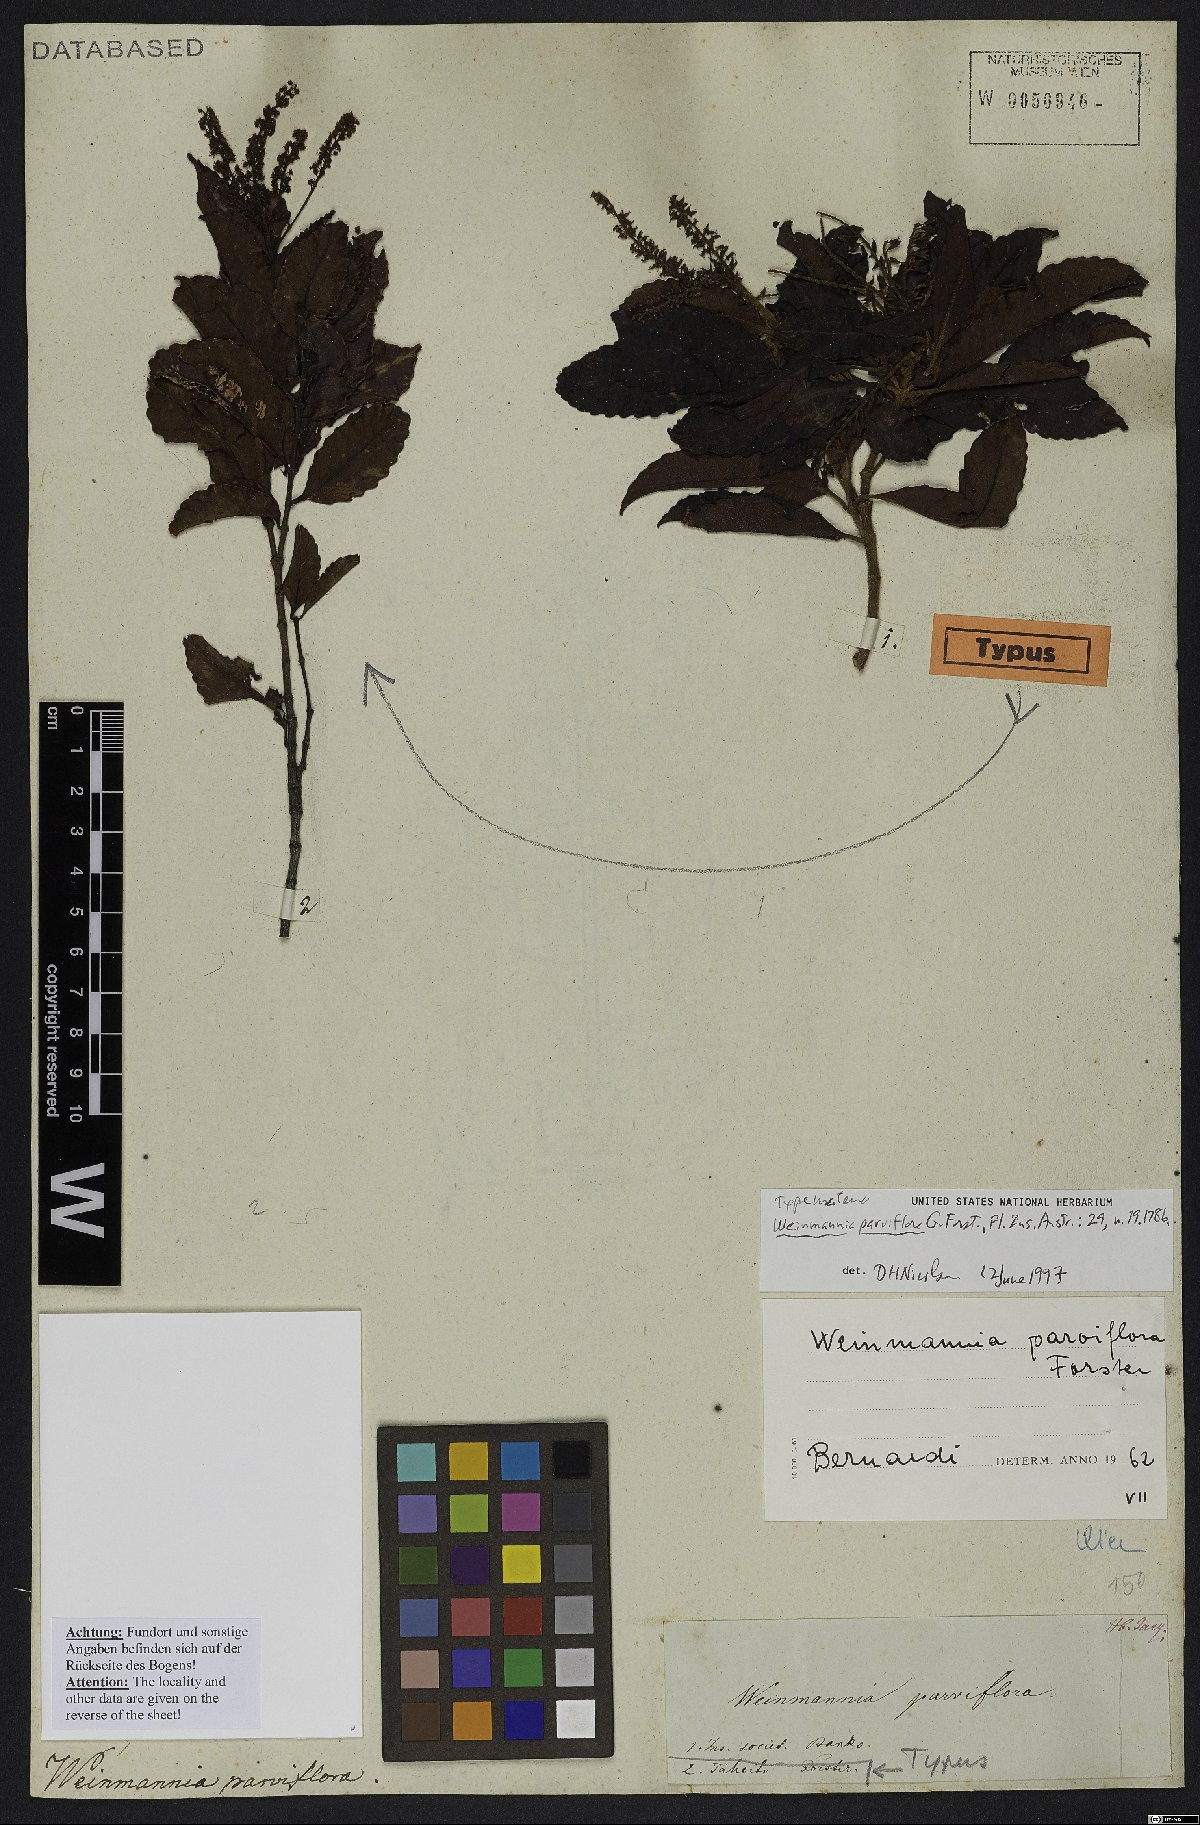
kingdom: Plantae
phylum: Tracheophyta
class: Magnoliopsida
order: Oxalidales
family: Cunoniaceae
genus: Pterophylla
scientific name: Pterophylla parviflora
